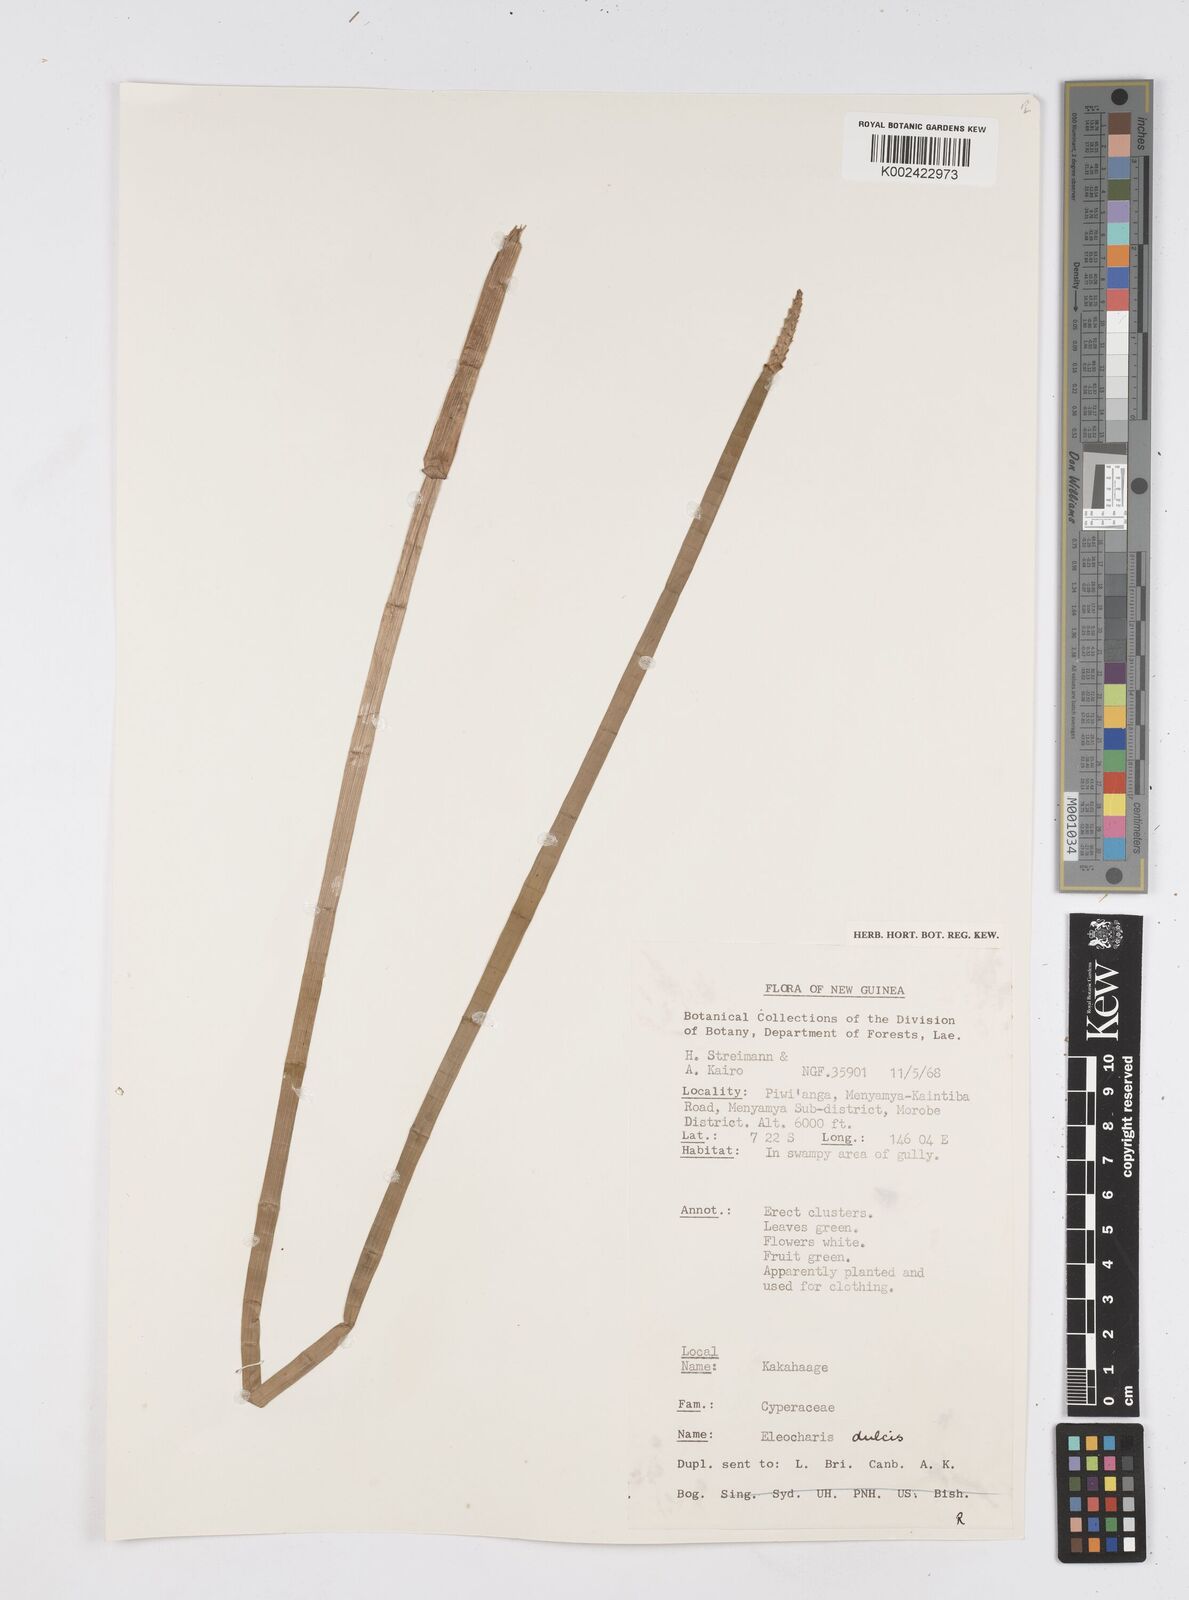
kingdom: Plantae
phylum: Tracheophyta
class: Liliopsida
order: Poales
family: Cyperaceae
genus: Eleocharis
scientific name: Eleocharis dulcis
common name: Chinese water chestnut
